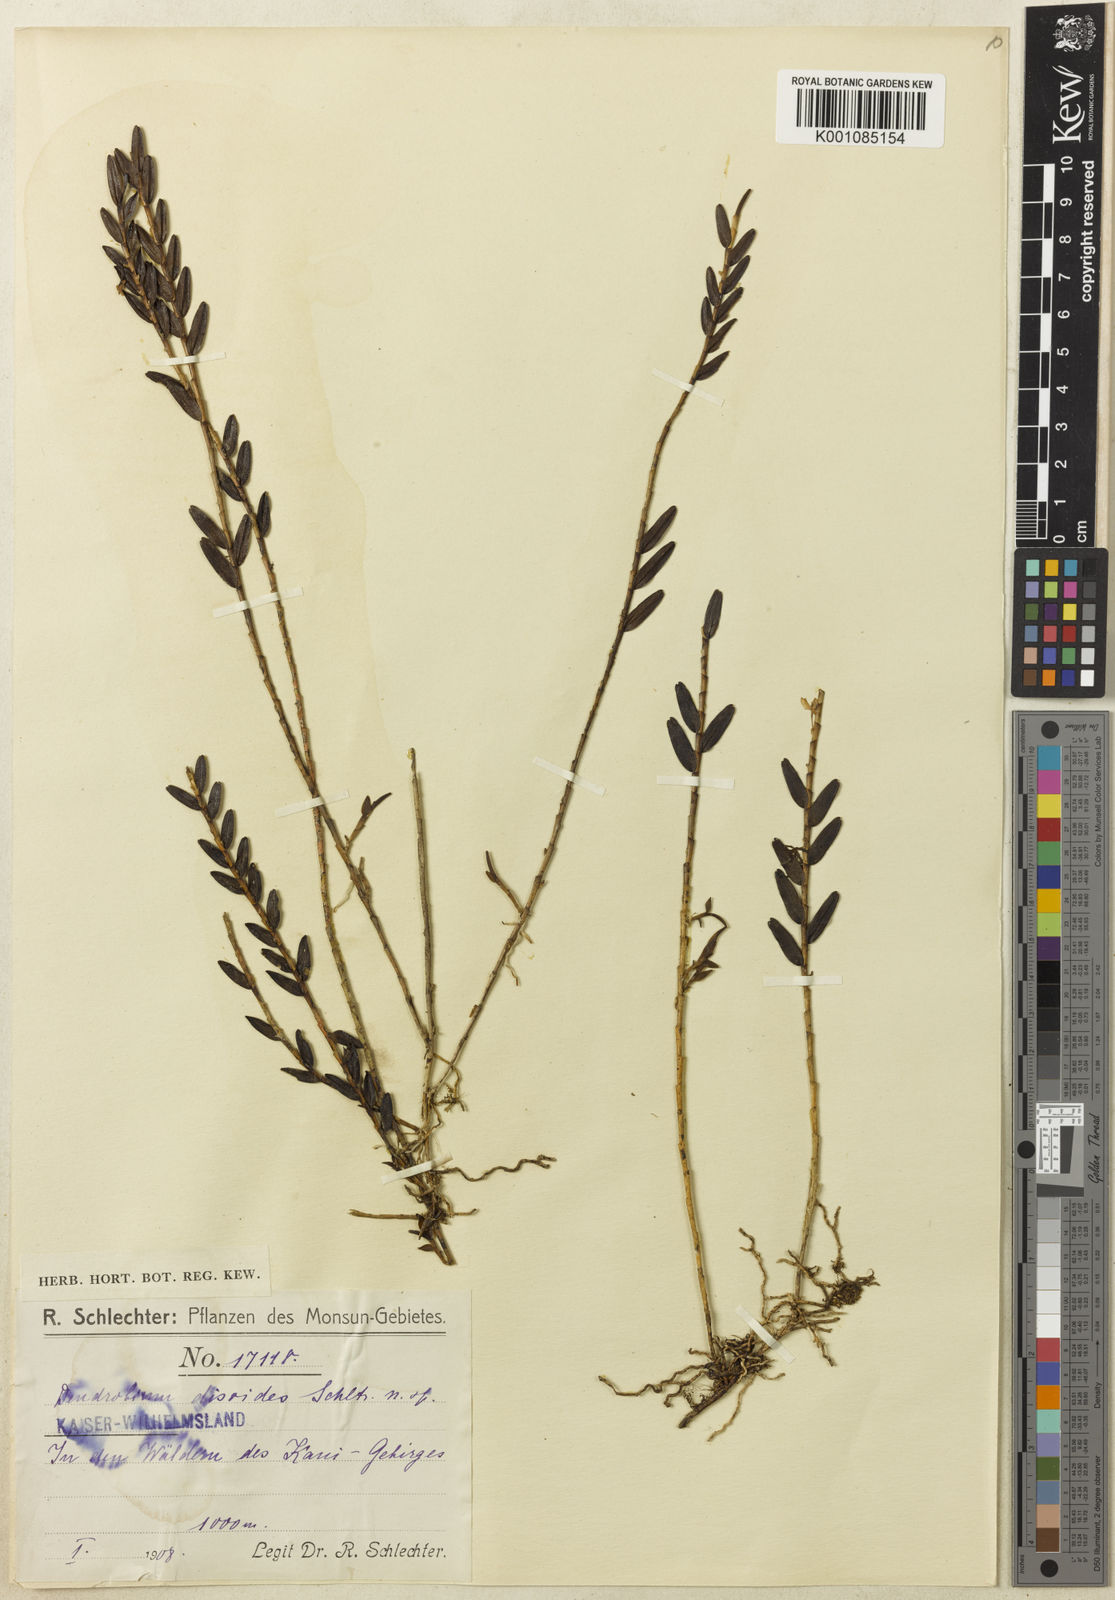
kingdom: Plantae
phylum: Tracheophyta
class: Liliopsida
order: Asparagales
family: Orchidaceae
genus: Dendrobium
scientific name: Dendrobium
